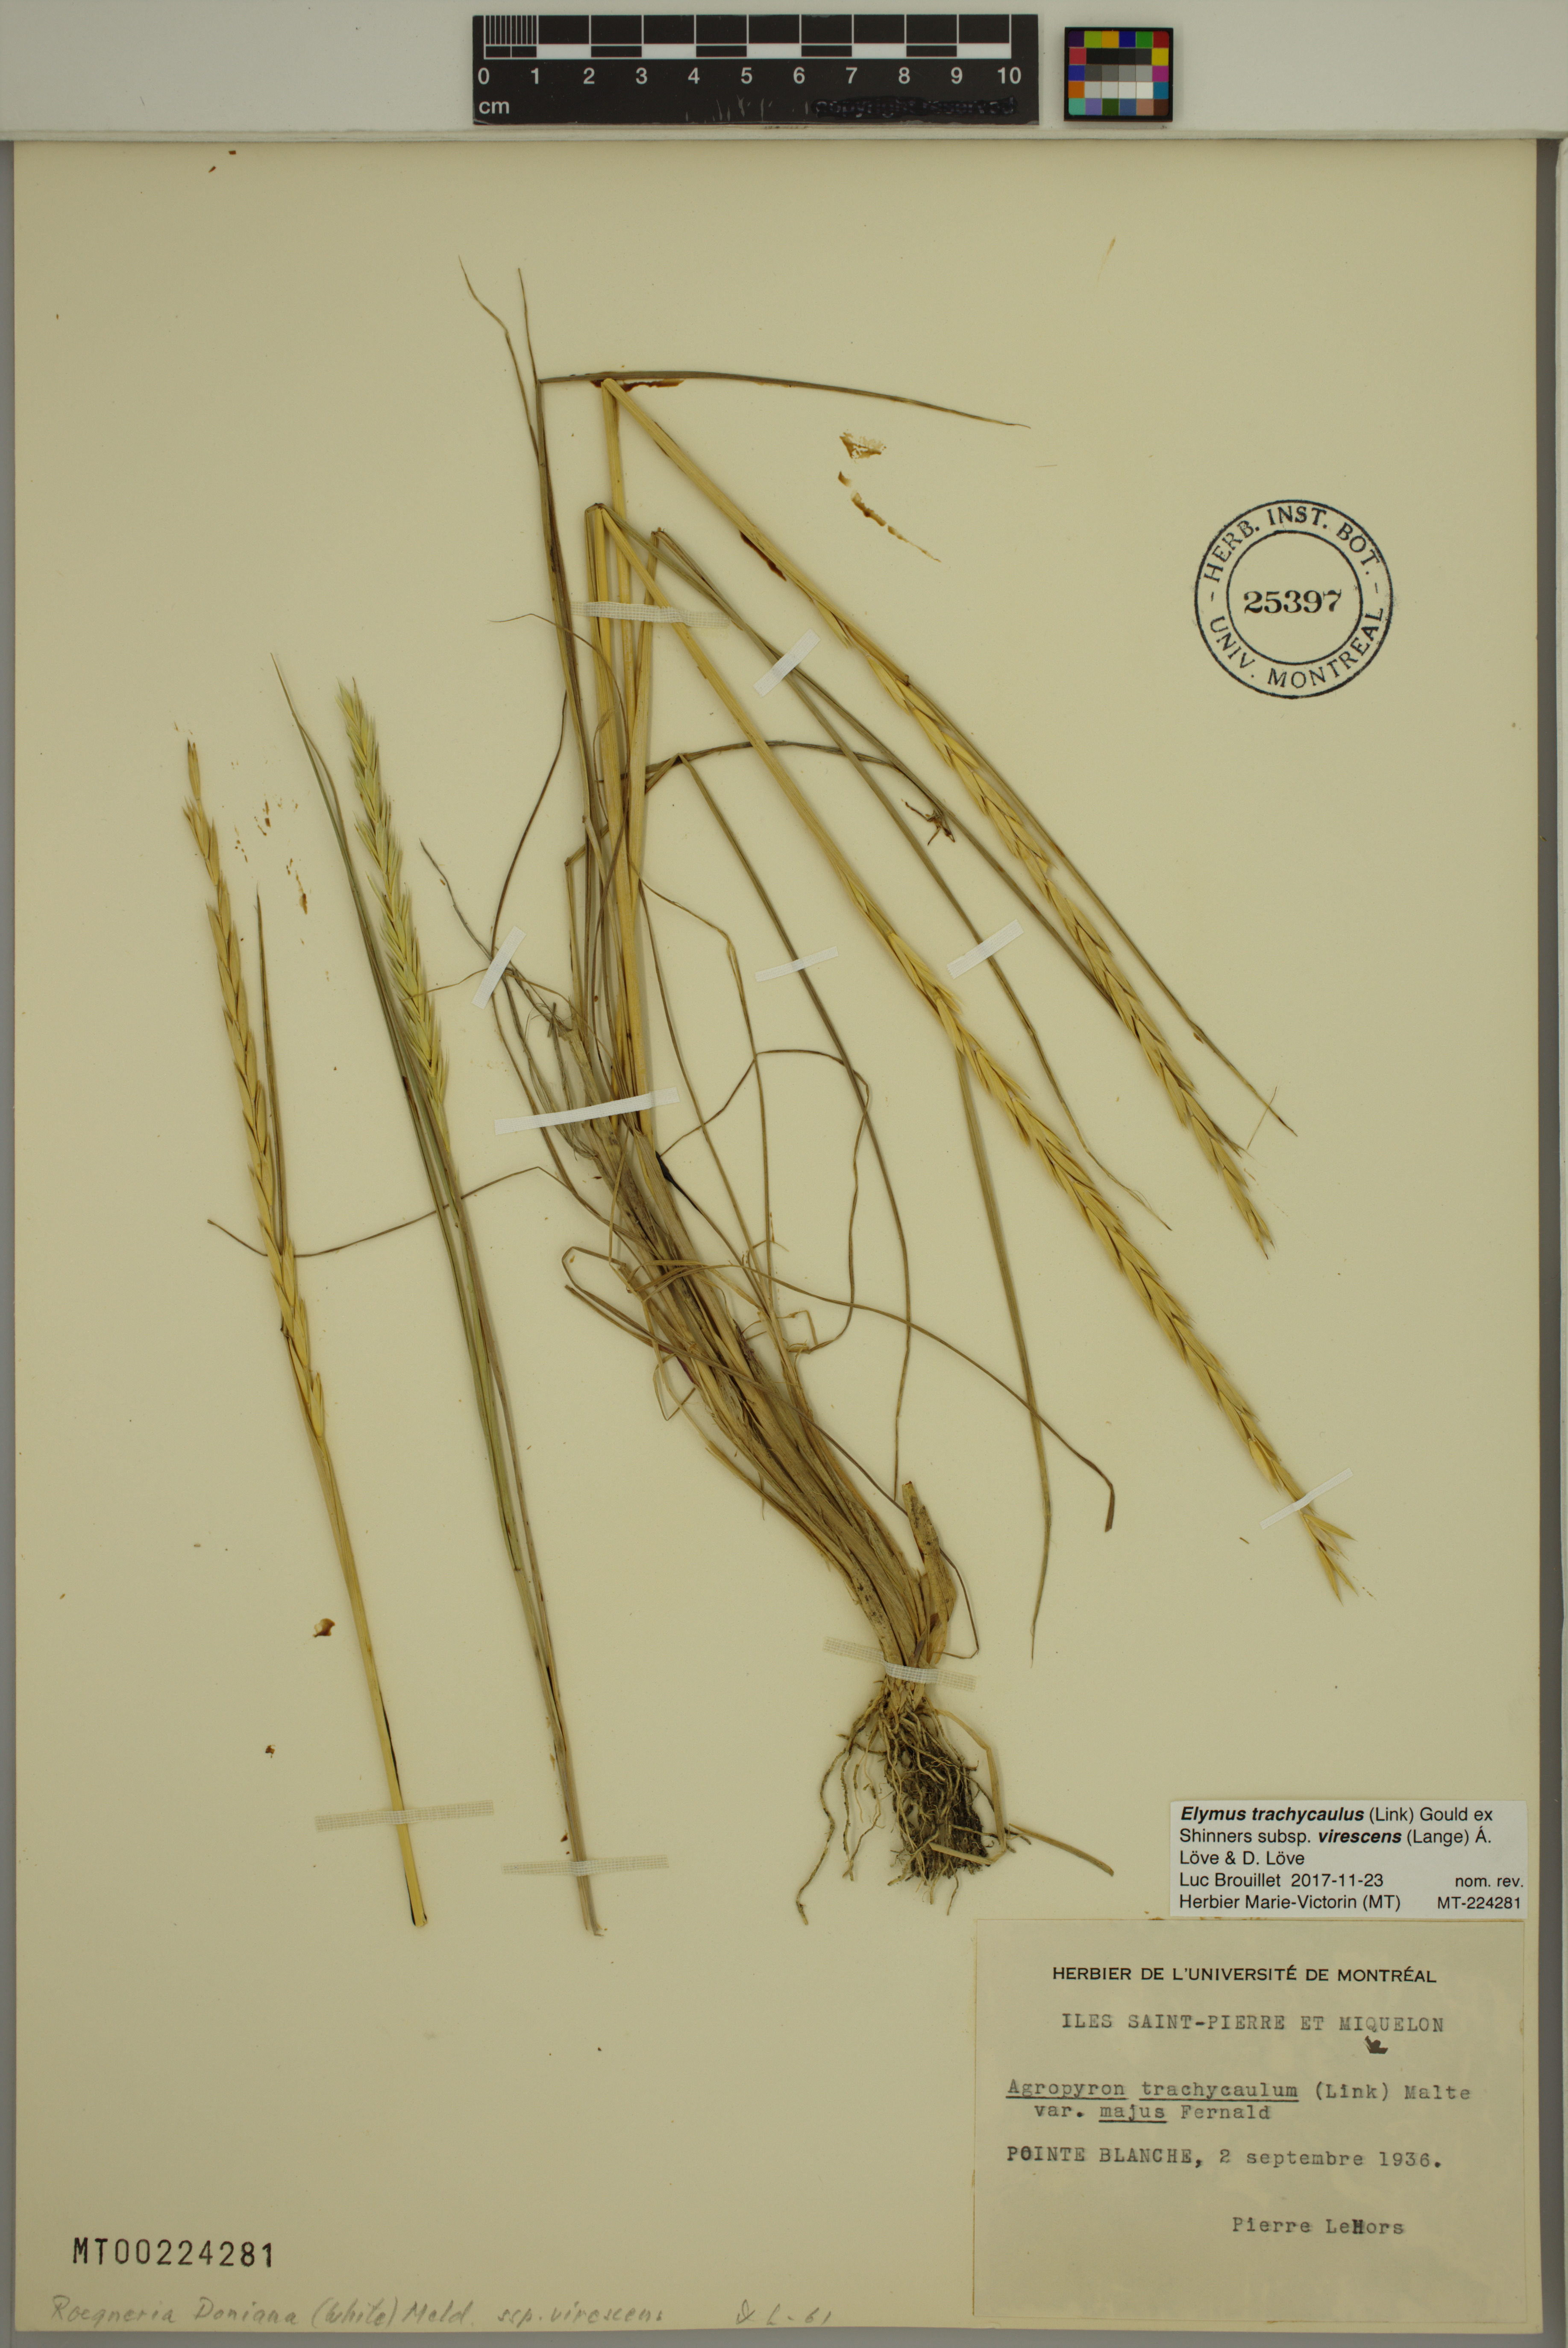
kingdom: Plantae
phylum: Tracheophyta
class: Liliopsida
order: Poales
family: Poaceae
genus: Elymus
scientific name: Elymus violaceus
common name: Arctic wheatgrass
